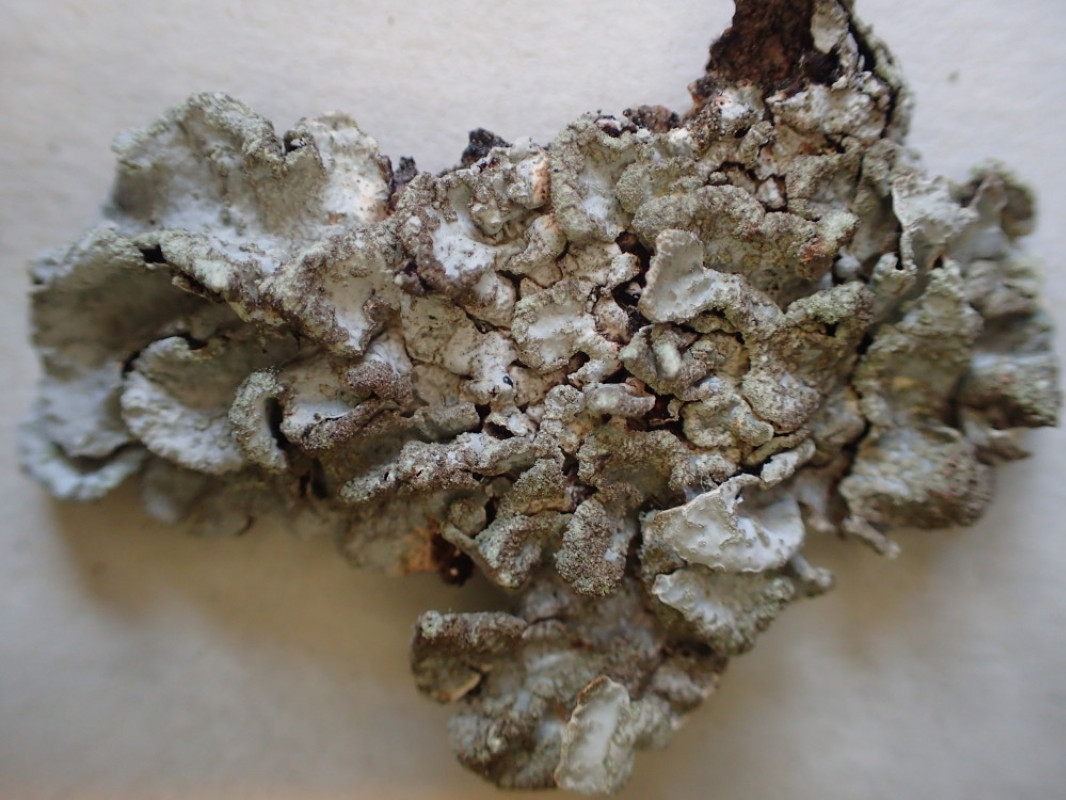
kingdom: Fungi
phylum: Ascomycota
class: Lecanoromycetes
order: Lecanorales
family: Parmeliaceae
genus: Parmelia
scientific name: Parmelia sulcata
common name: rynket skållav
